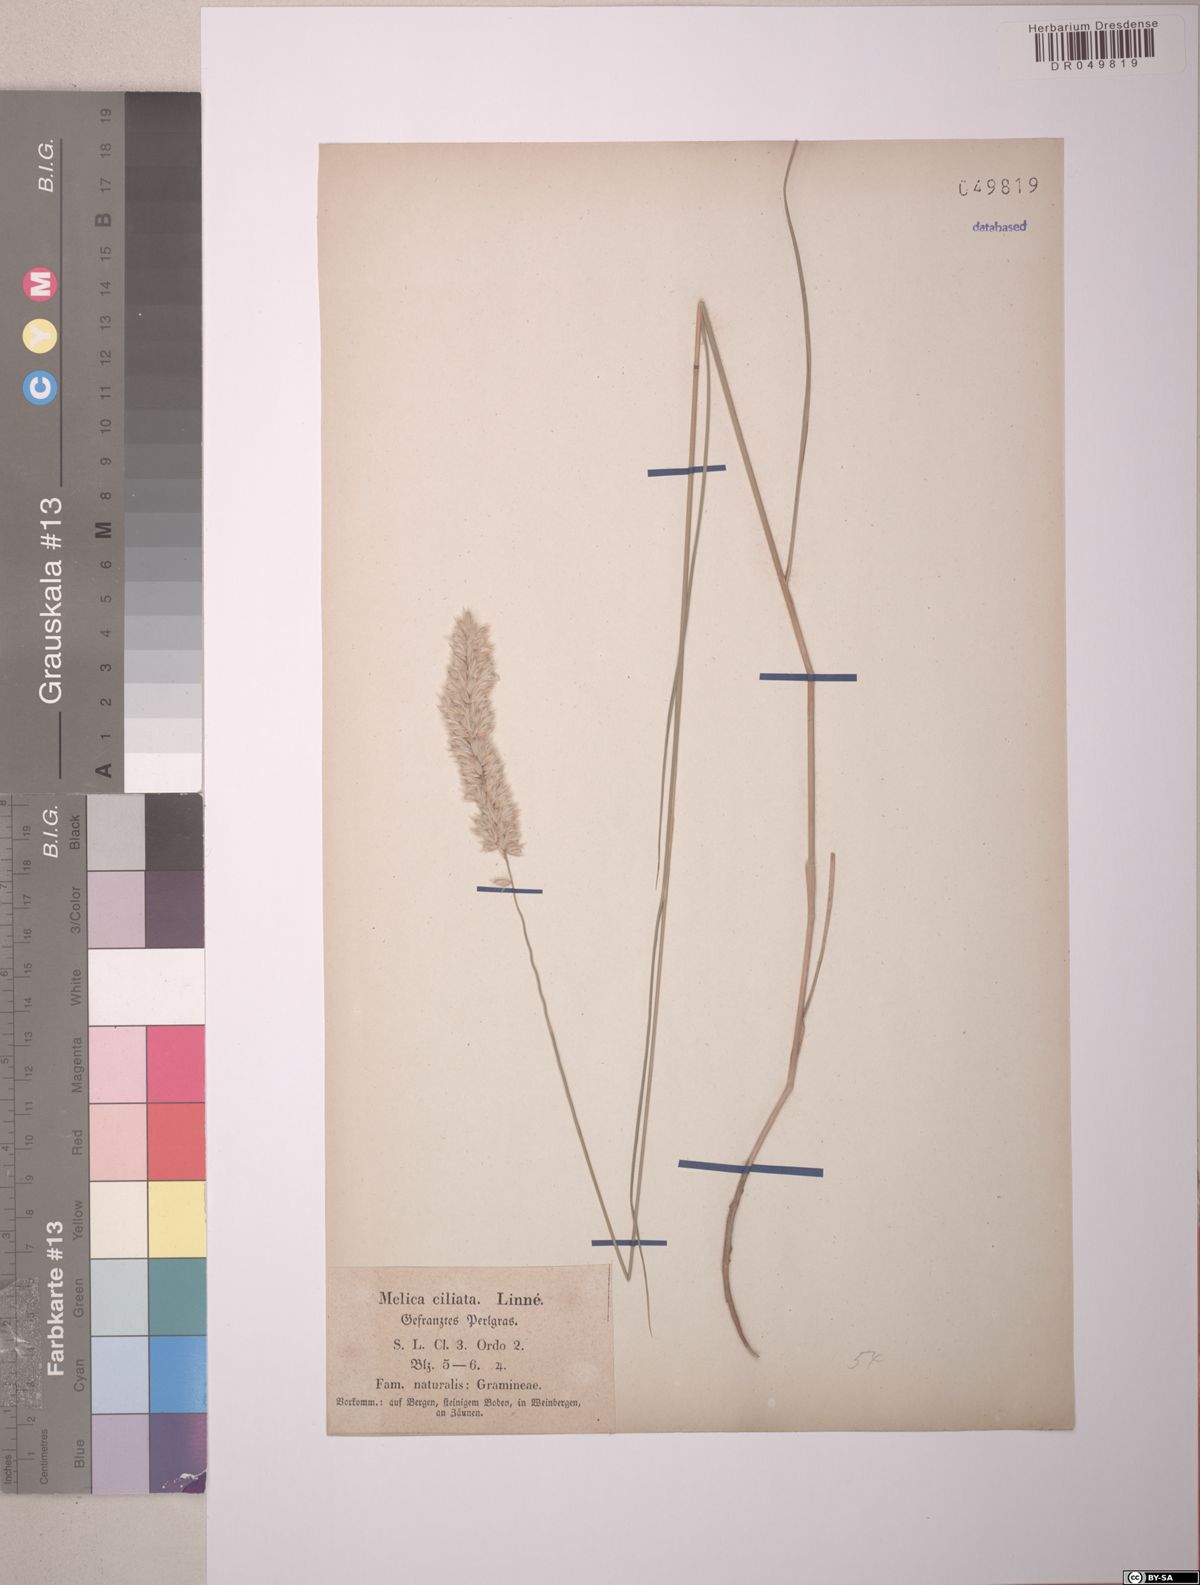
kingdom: Plantae
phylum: Tracheophyta
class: Liliopsida
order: Poales
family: Poaceae
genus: Melica
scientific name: Melica ciliata
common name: Hairy melicgrass
